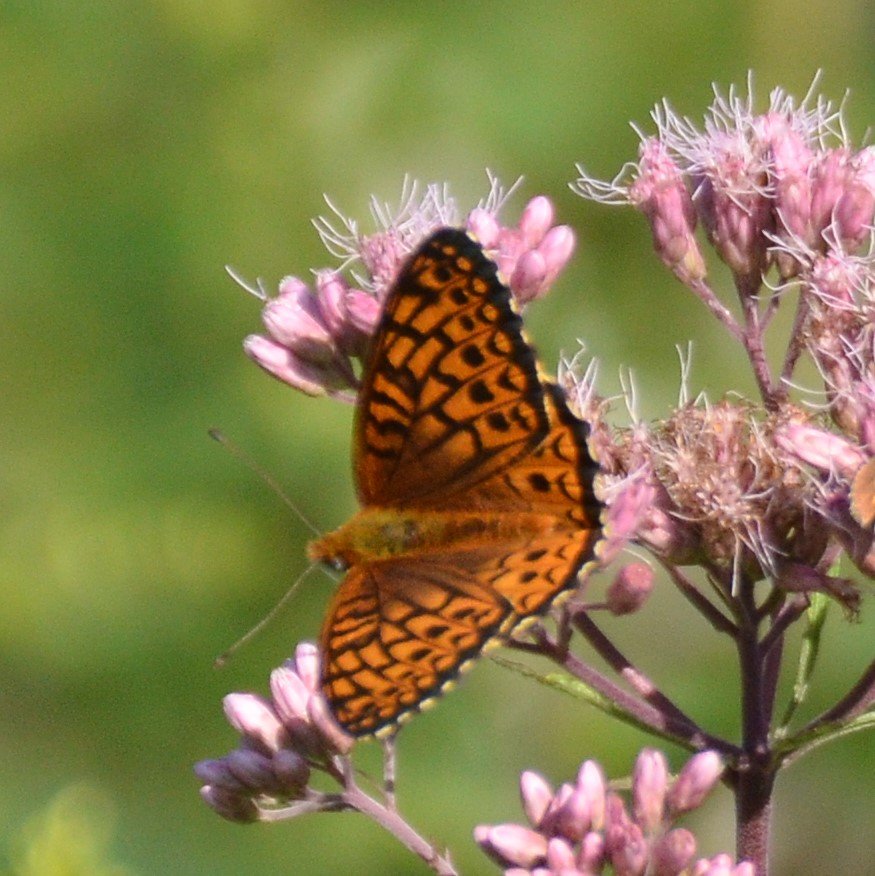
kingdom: Animalia
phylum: Arthropoda
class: Insecta
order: Lepidoptera
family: Nymphalidae
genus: Speyeria
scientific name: Speyeria atlantis
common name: Atlantis Fritillary
